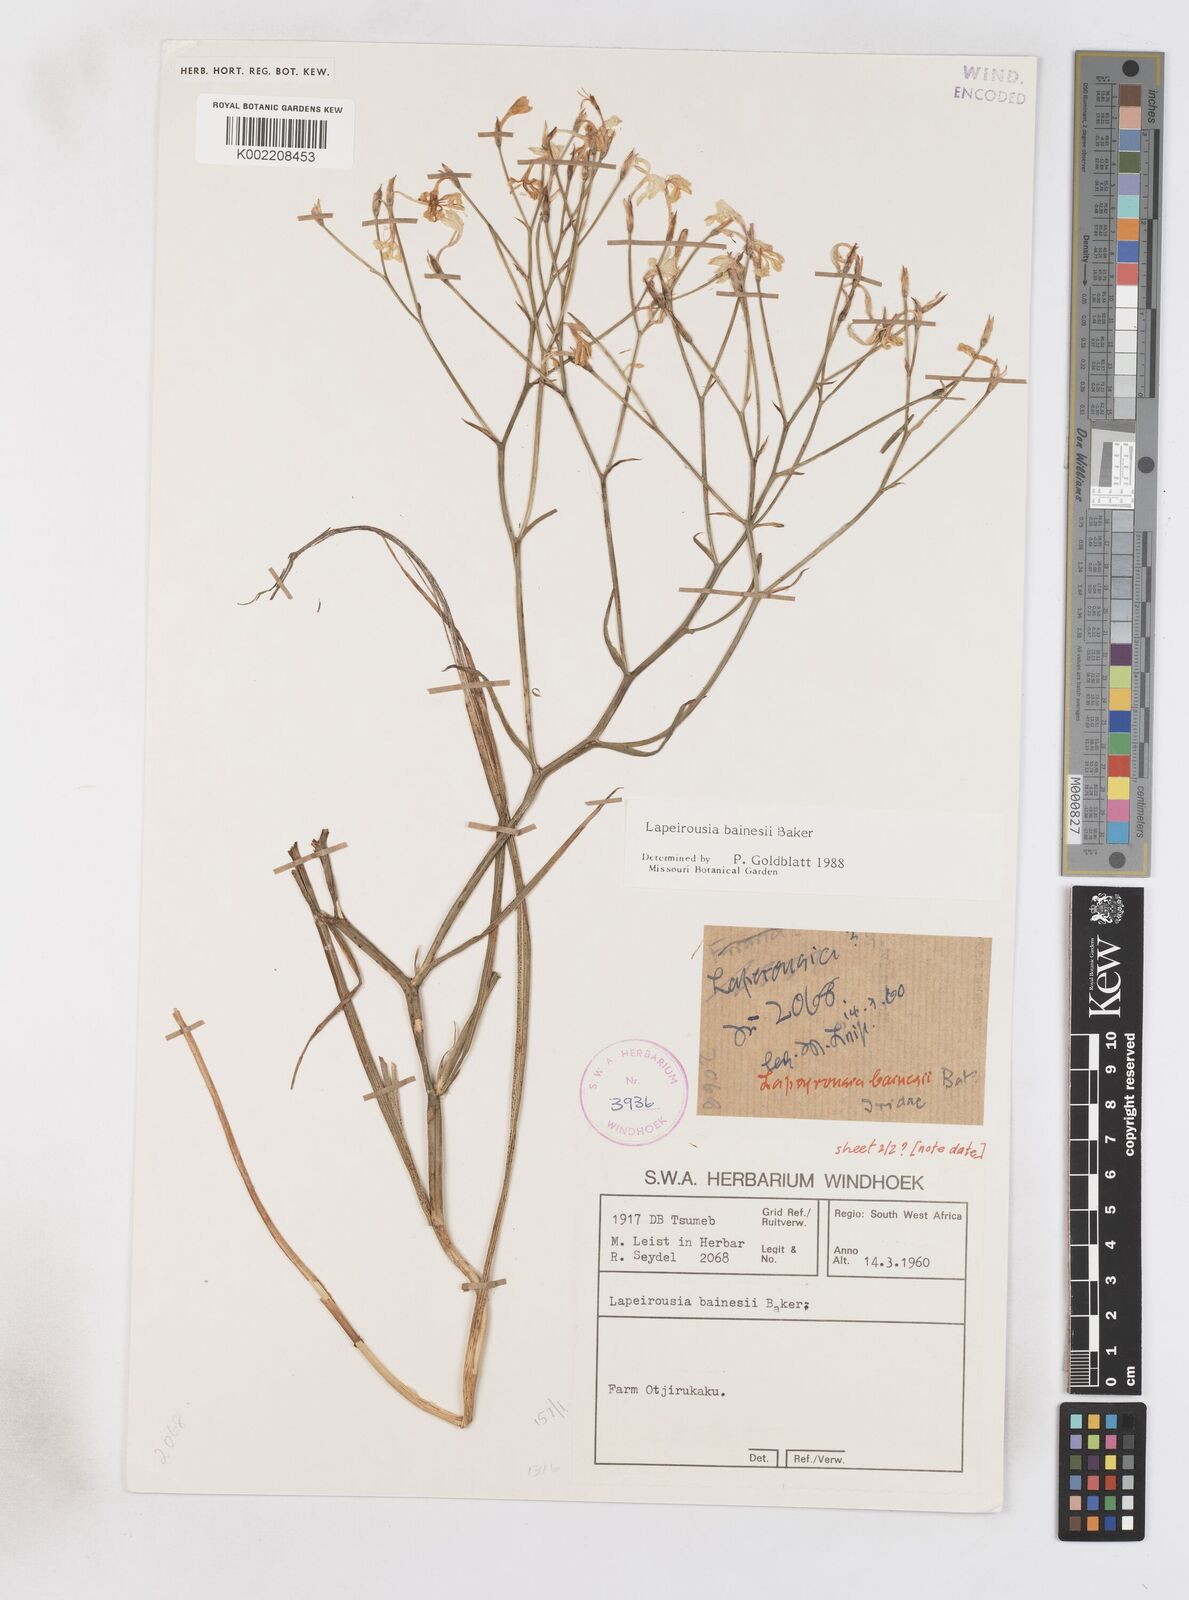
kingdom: Plantae
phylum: Tracheophyta
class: Liliopsida
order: Asparagales
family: Iridaceae
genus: Afrosolen
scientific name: Afrosolen erythranthus
